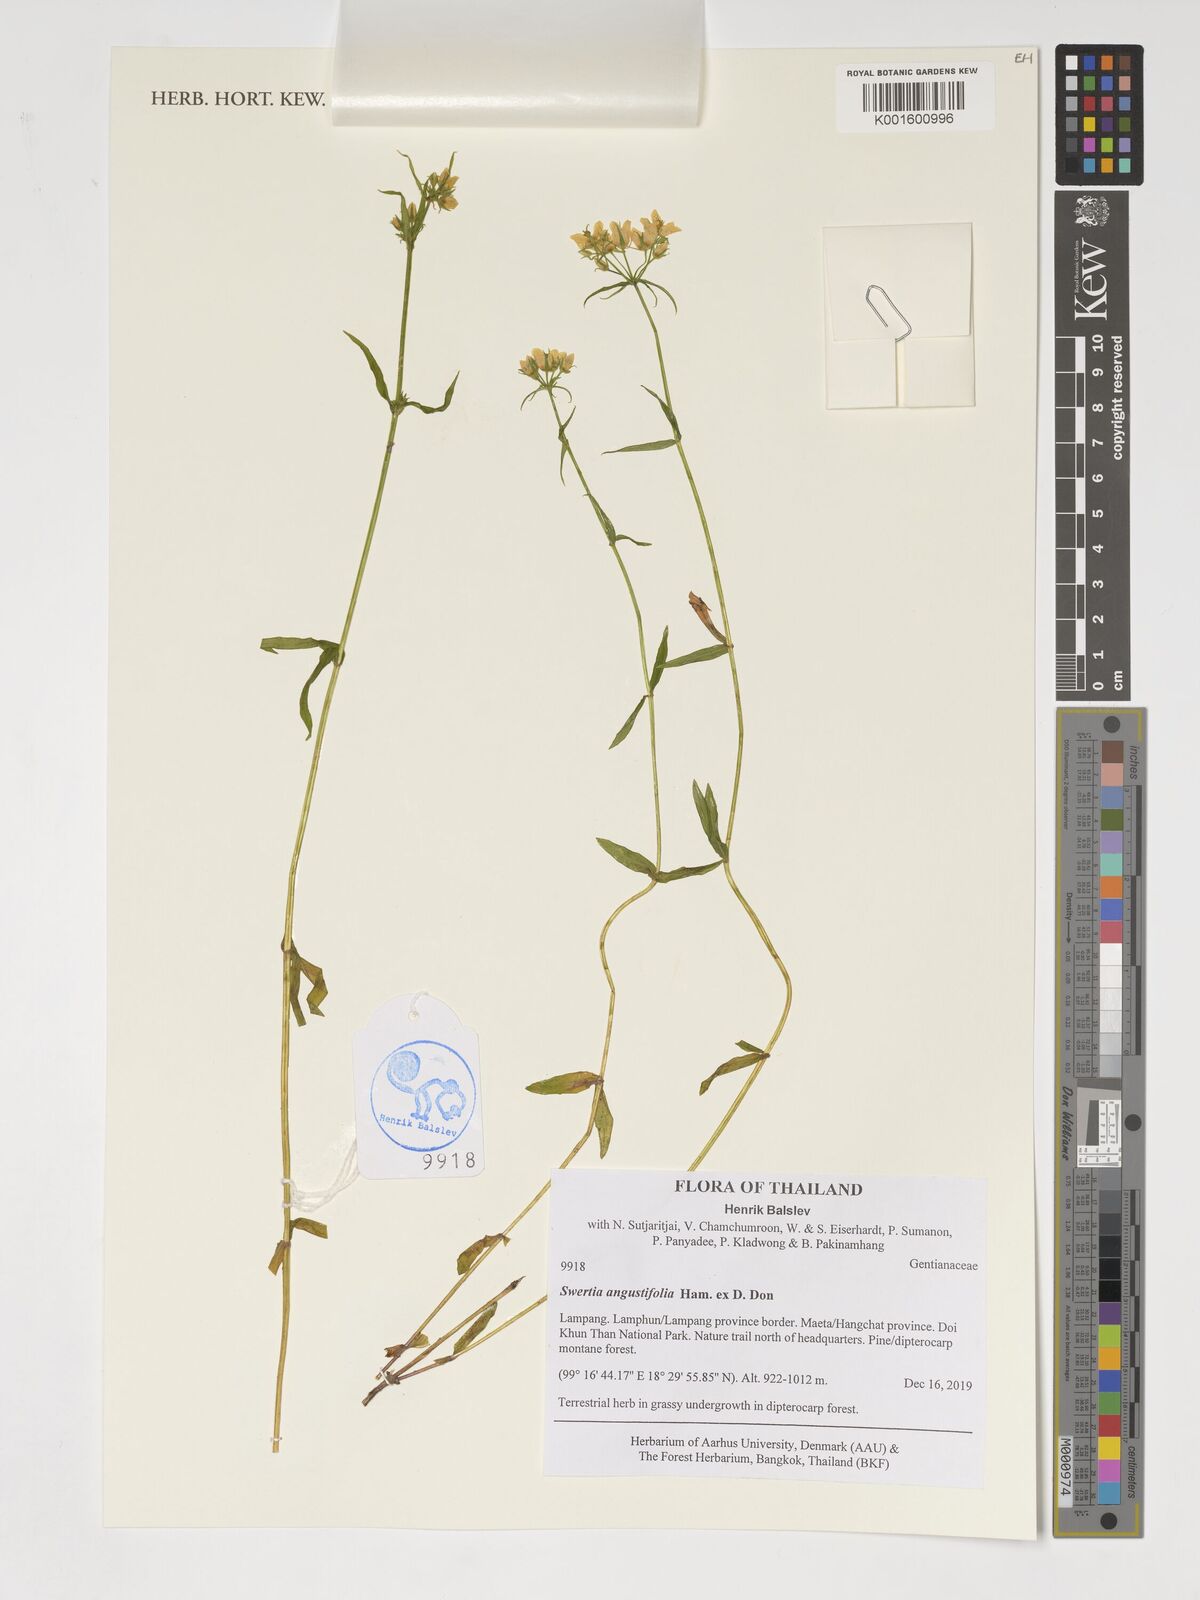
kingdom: Plantae
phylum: Tracheophyta
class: Magnoliopsida
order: Gentianales
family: Gentianaceae
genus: Swertia
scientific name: Swertia angustifolia
